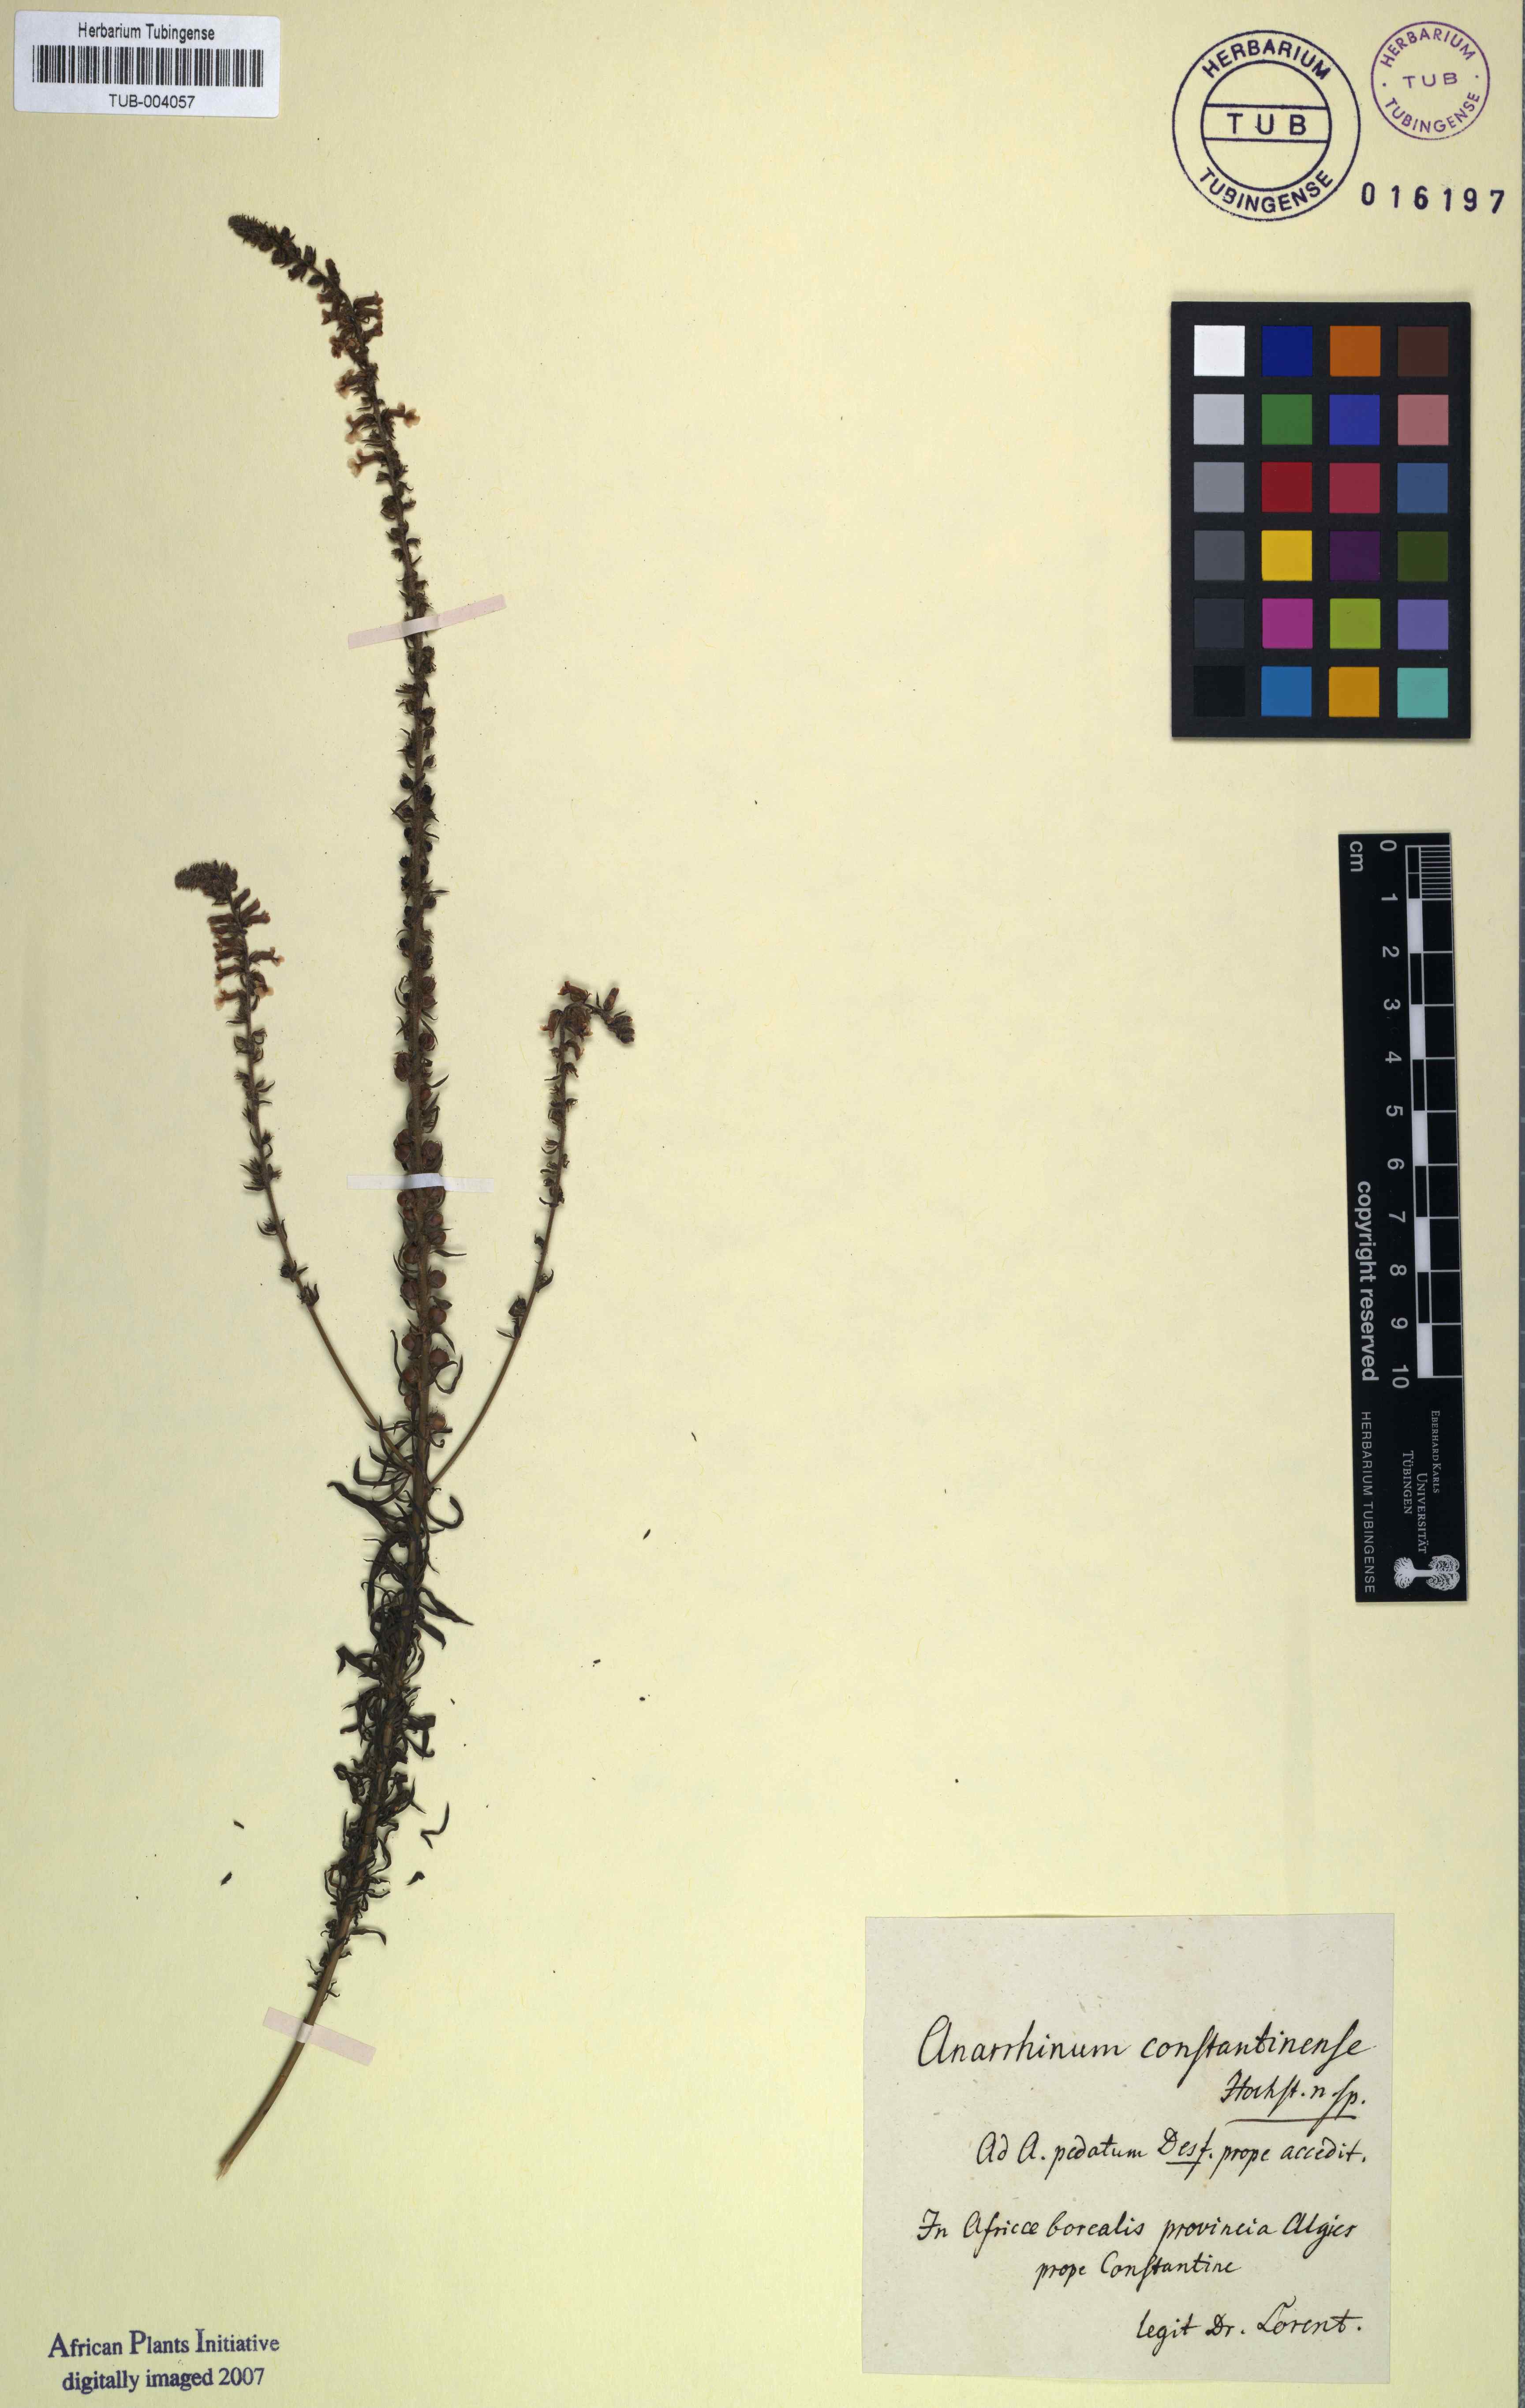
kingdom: Plantae
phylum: Tracheophyta
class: Magnoliopsida
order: Lamiales
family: Plantaginaceae
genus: Anarrhinum
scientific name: Anarrhinum
